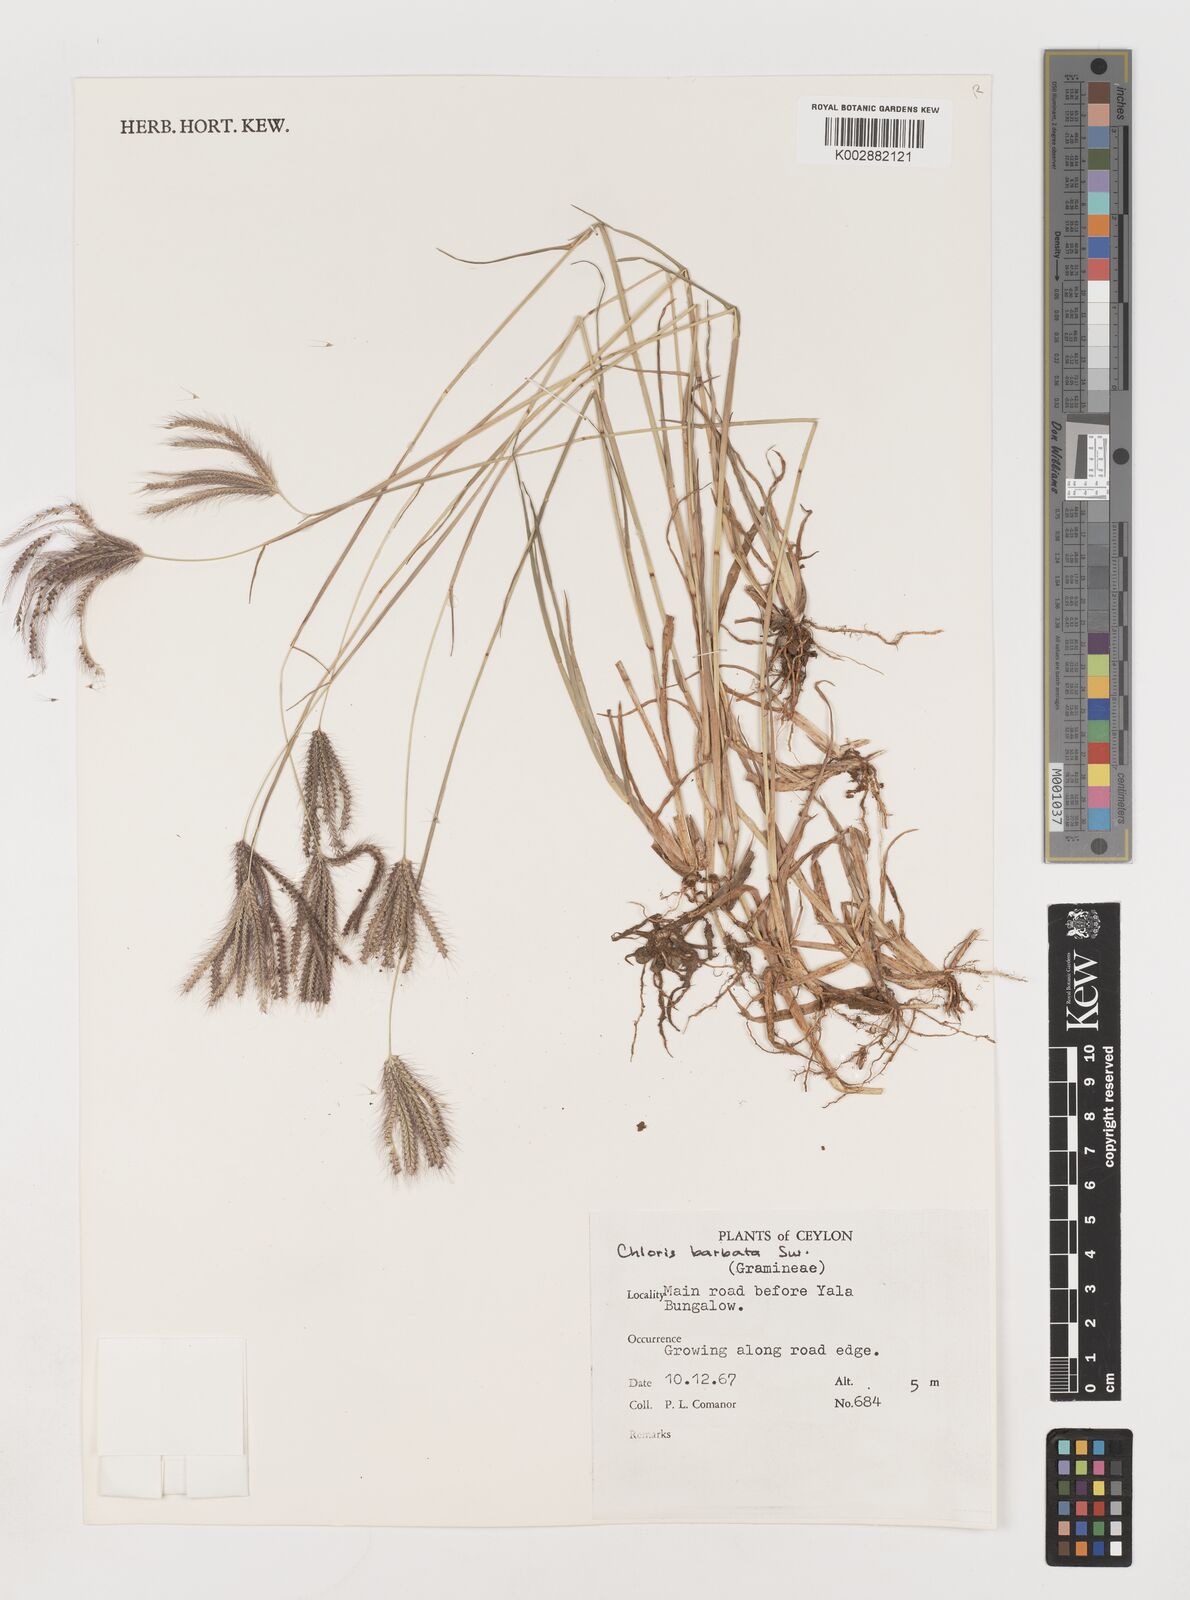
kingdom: Plantae
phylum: Tracheophyta
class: Liliopsida
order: Poales
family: Poaceae
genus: Chloris
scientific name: Chloris barbata
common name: Swollen fingergrass
